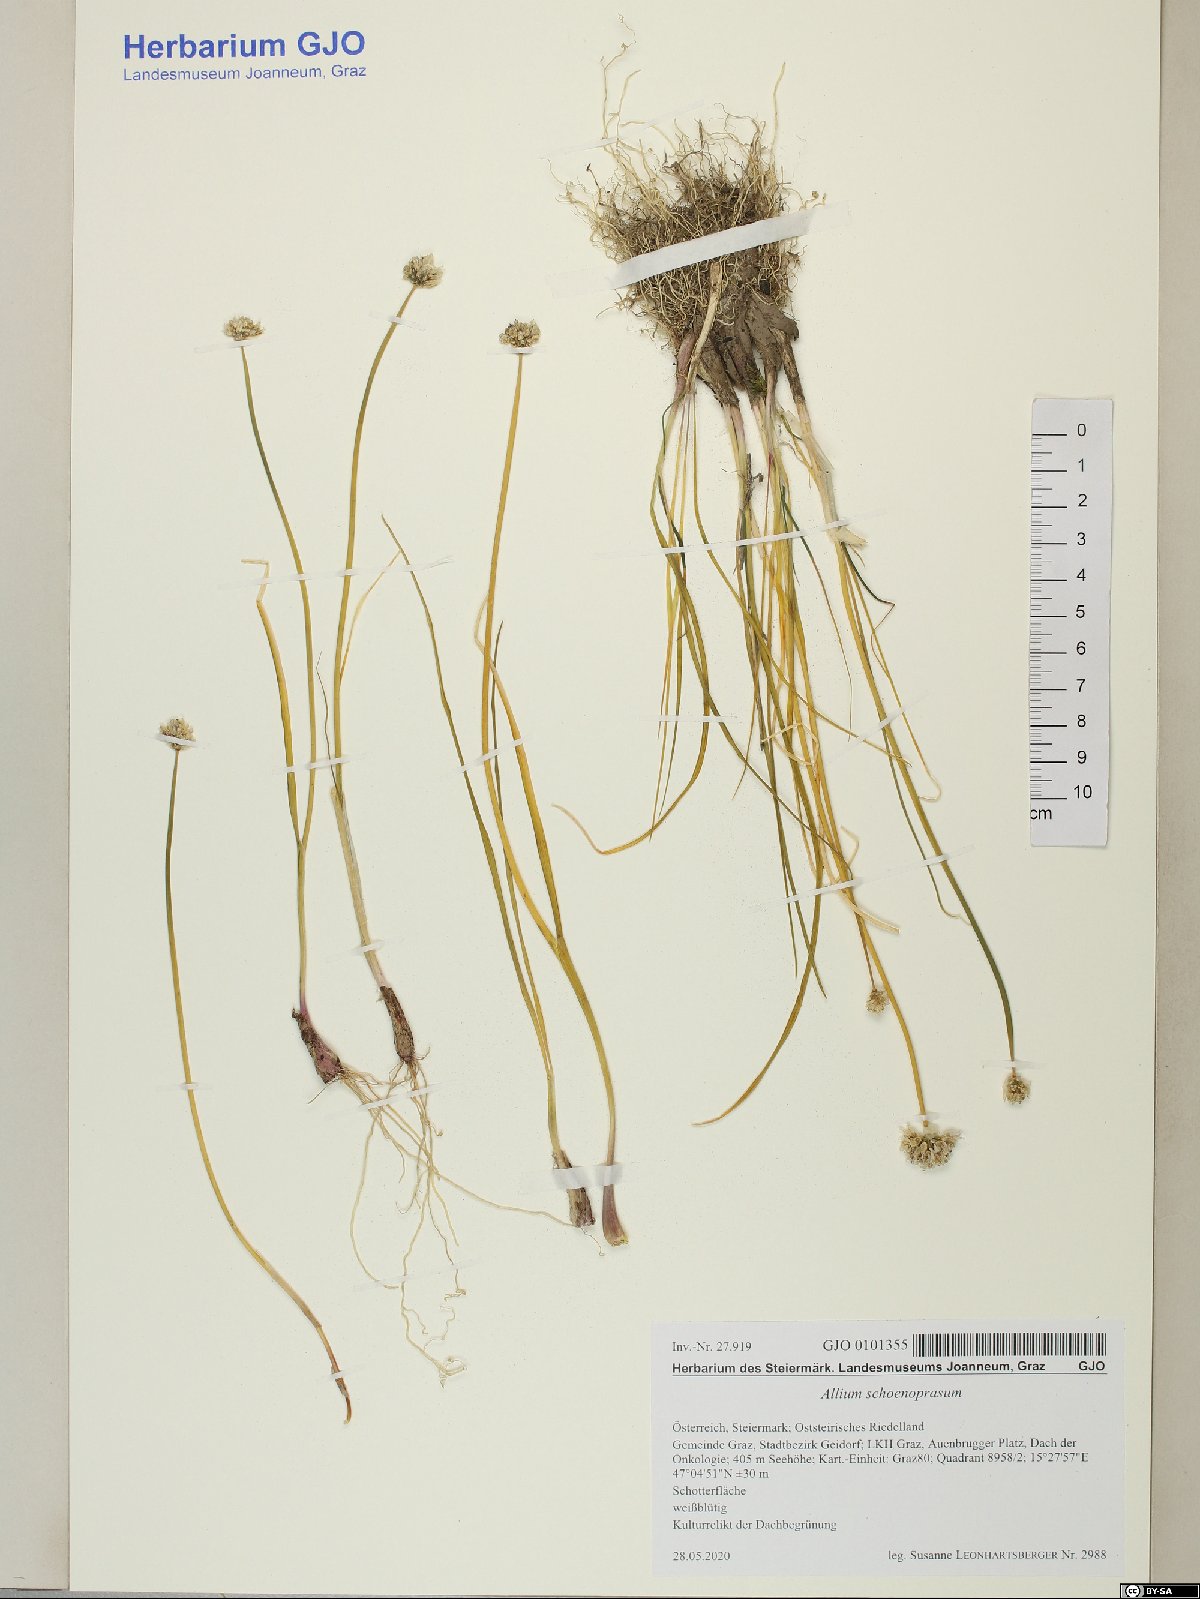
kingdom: Plantae
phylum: Tracheophyta
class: Liliopsida
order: Asparagales
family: Amaryllidaceae
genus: Allium
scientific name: Allium schoenoprasum
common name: Chives
